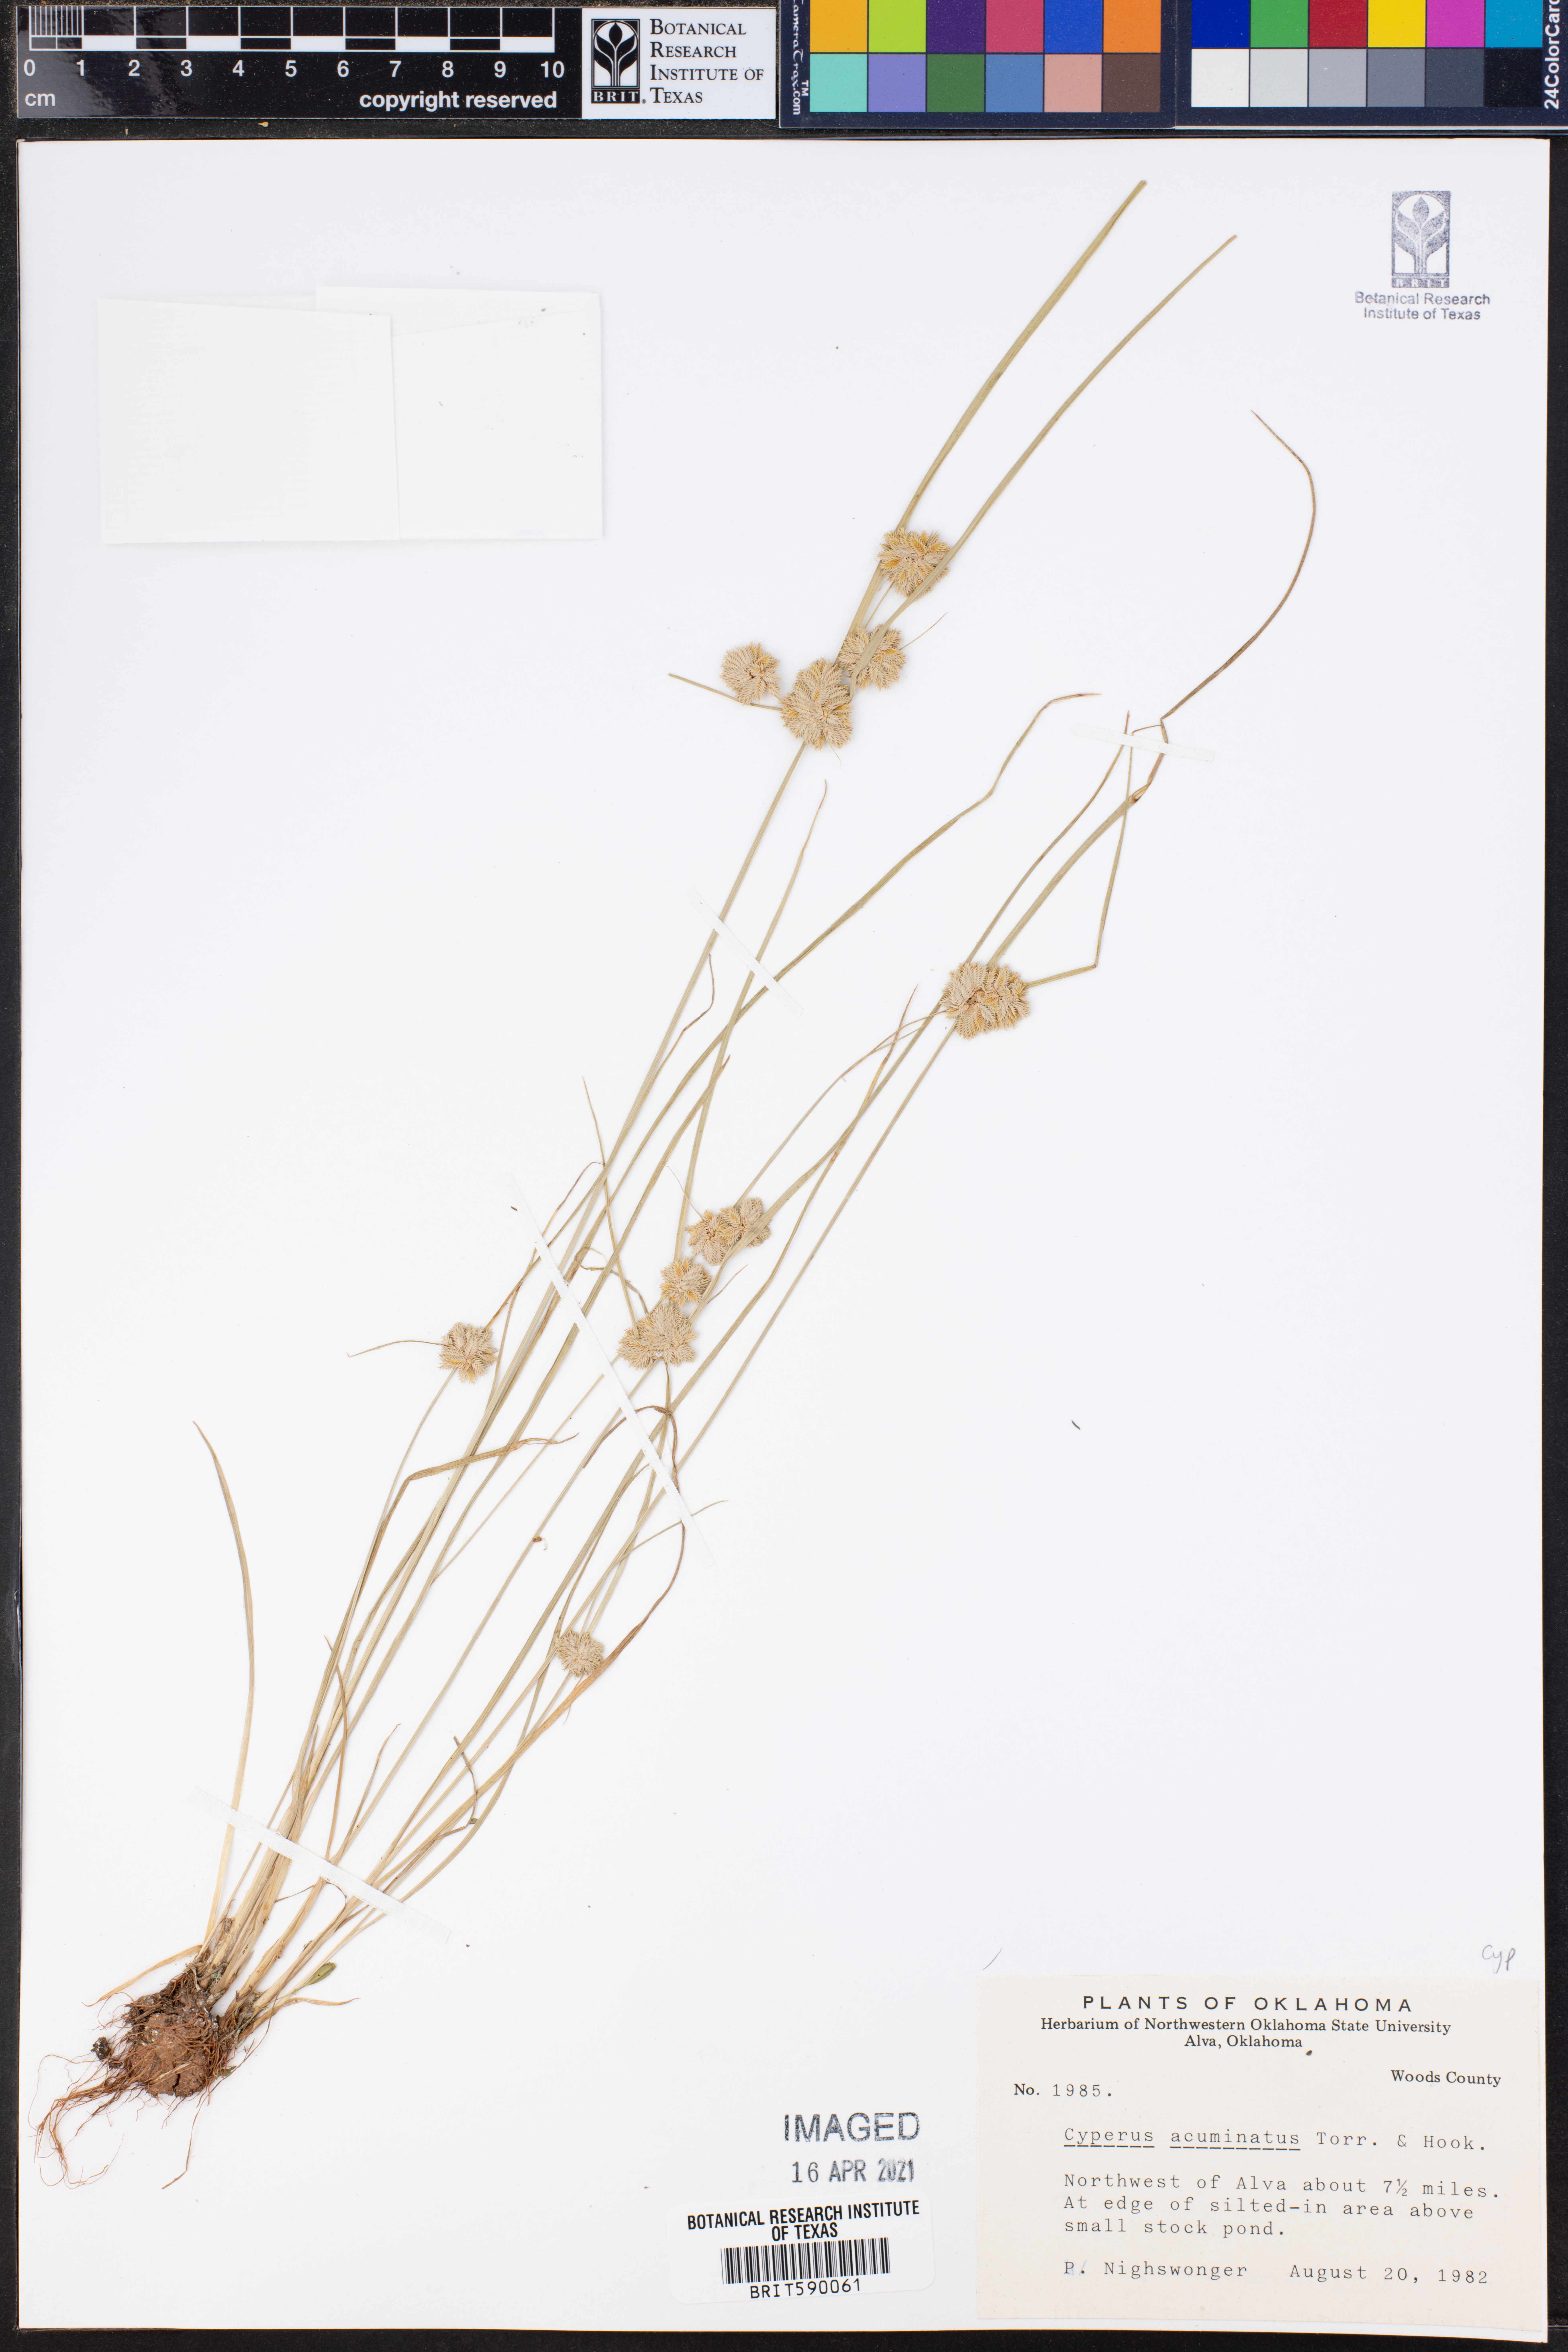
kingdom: Plantae
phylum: Tracheophyta
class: Liliopsida
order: Poales
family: Cyperaceae
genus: Cyperus
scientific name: Cyperus acuminatus
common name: Short-pointed cyperus
